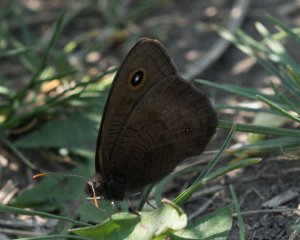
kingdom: Animalia
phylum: Arthropoda
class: Insecta
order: Lepidoptera
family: Nymphalidae
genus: Cercyonis
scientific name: Cercyonis pegala
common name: Common Wood-Nymph
